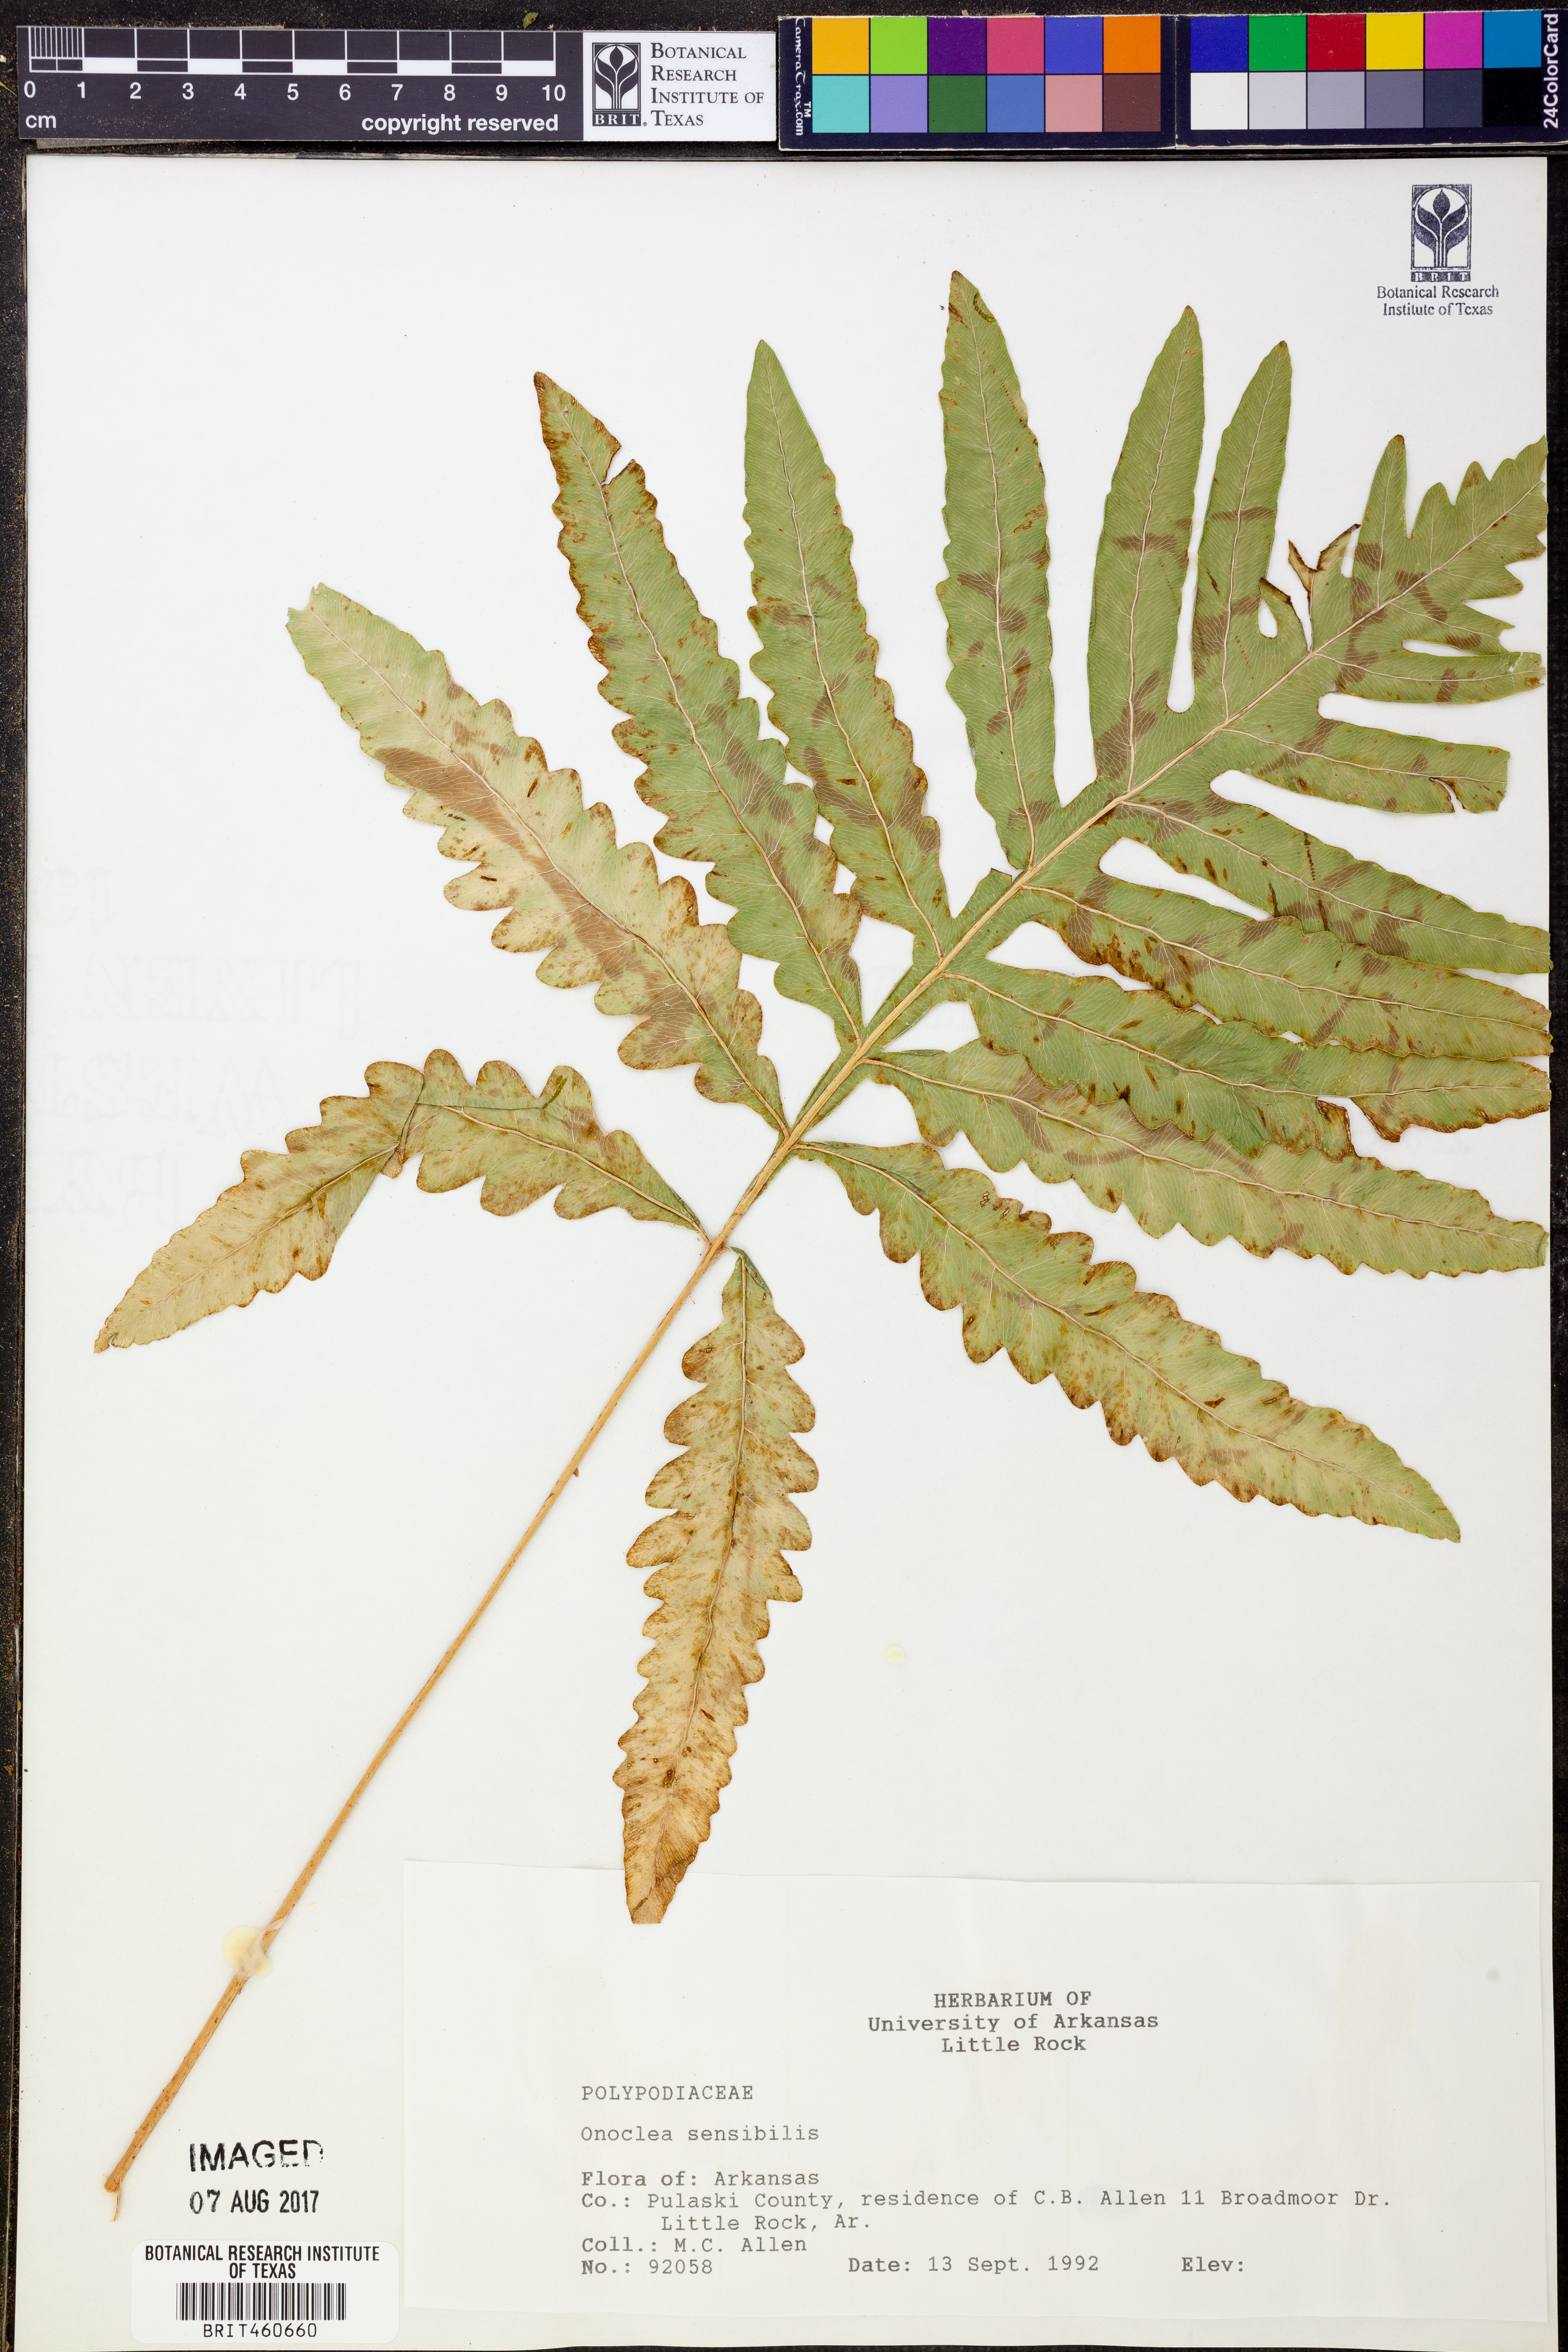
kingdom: Plantae
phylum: Tracheophyta
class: Polypodiopsida
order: Polypodiales
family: Onocleaceae
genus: Onoclea
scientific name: Onoclea sensibilis
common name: Sensitive fern
